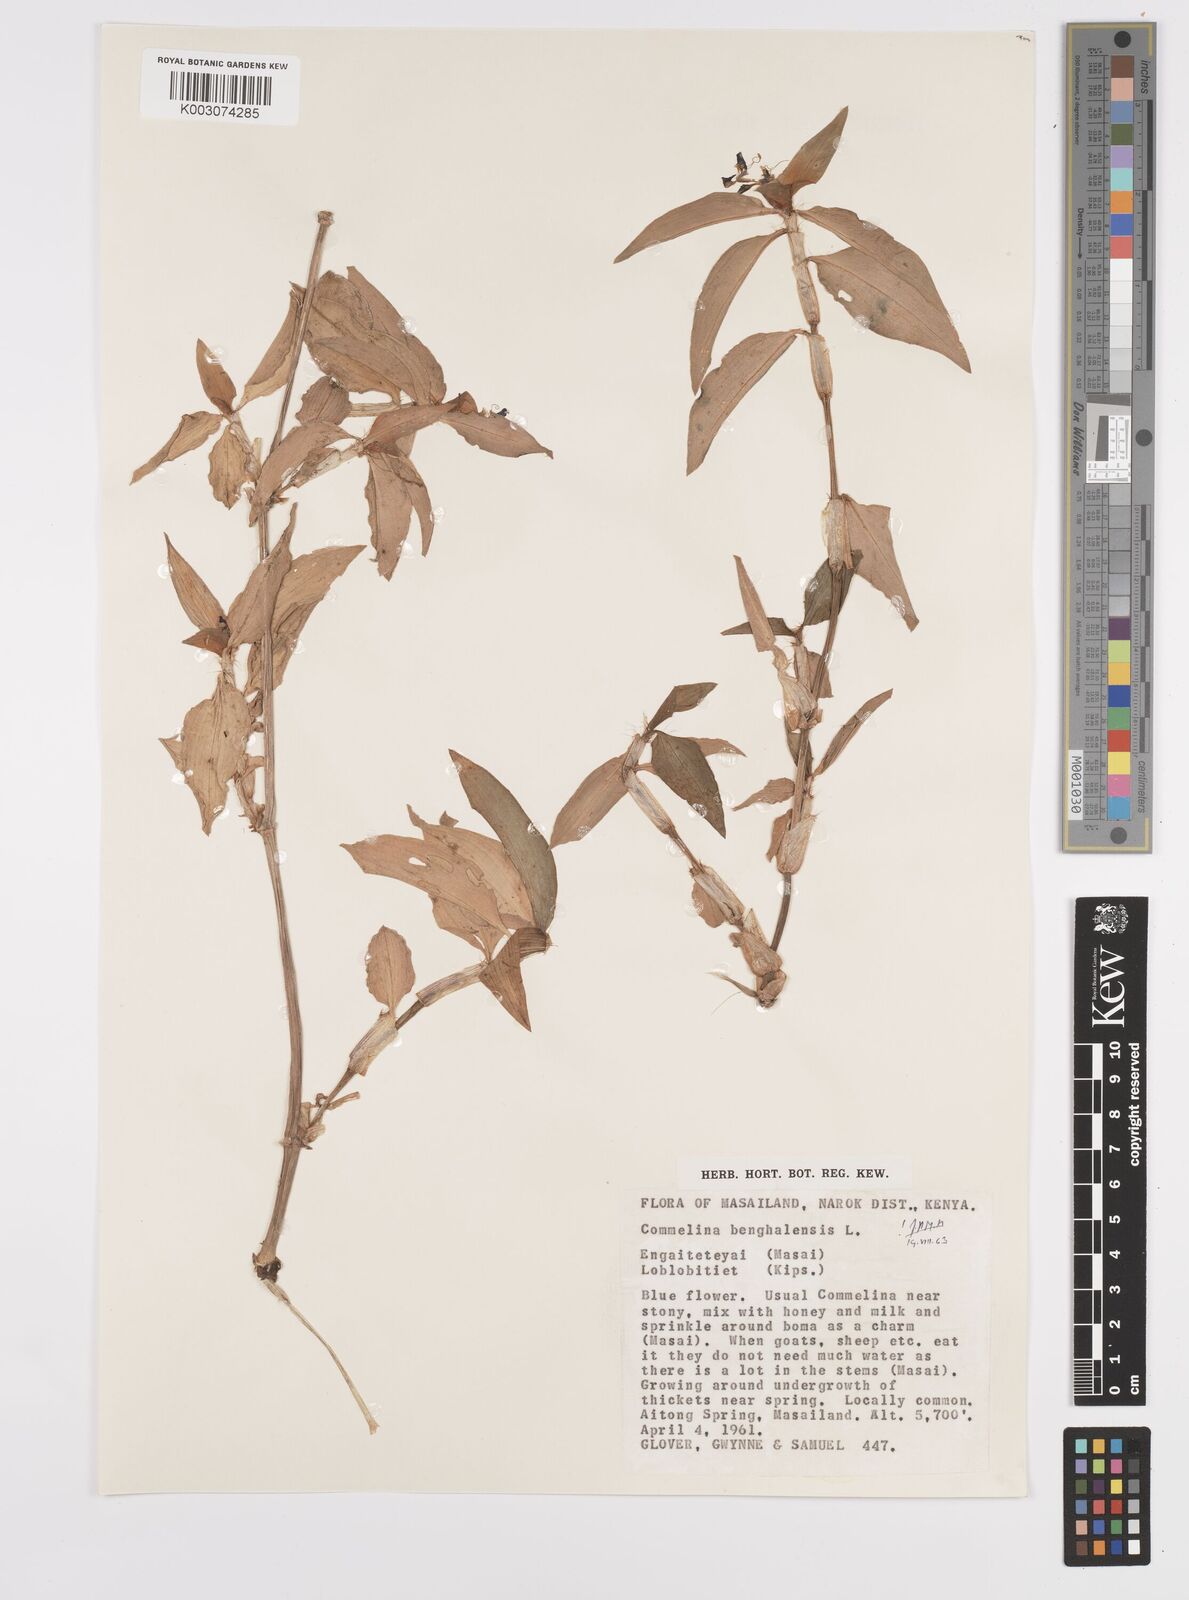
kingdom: Plantae
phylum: Tracheophyta
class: Liliopsida
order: Commelinales
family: Commelinaceae
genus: Commelina
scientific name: Commelina benghalensis
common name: Jio
